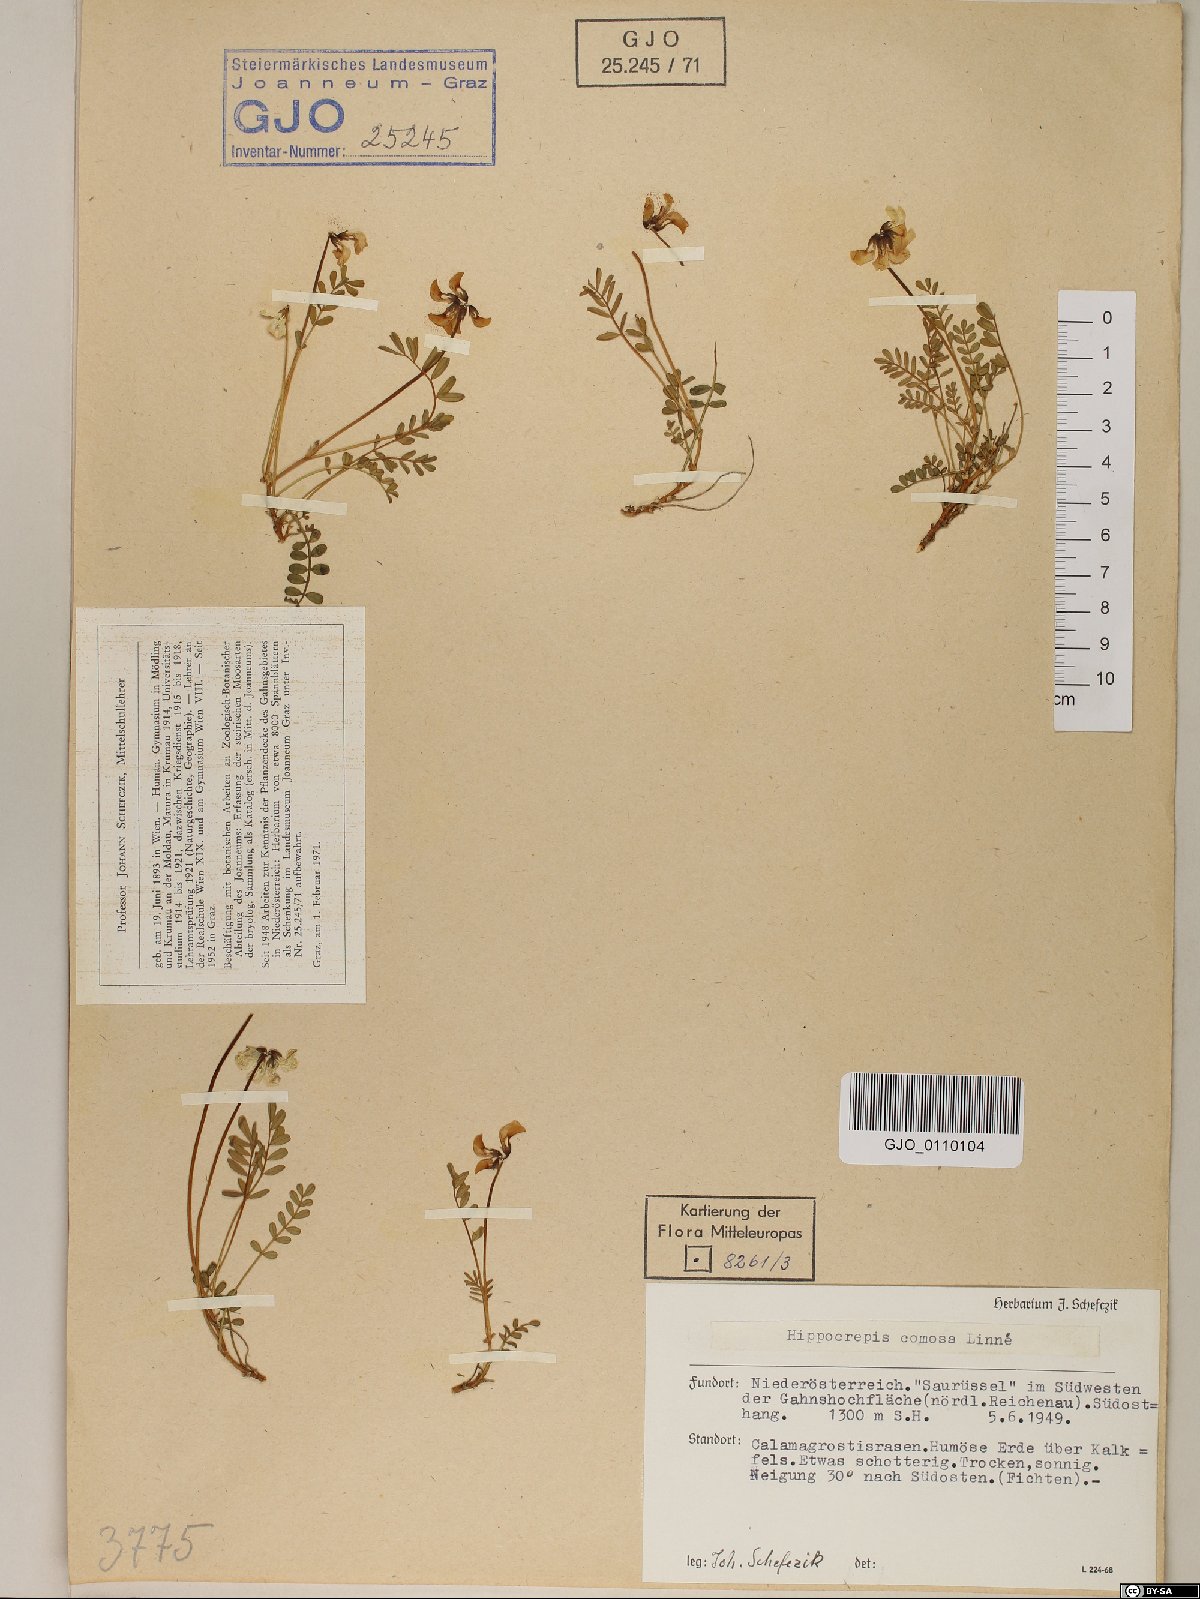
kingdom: Plantae
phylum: Tracheophyta
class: Magnoliopsida
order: Fabales
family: Fabaceae
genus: Hippocrepis
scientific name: Hippocrepis comosa
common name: Horseshoe vetch
